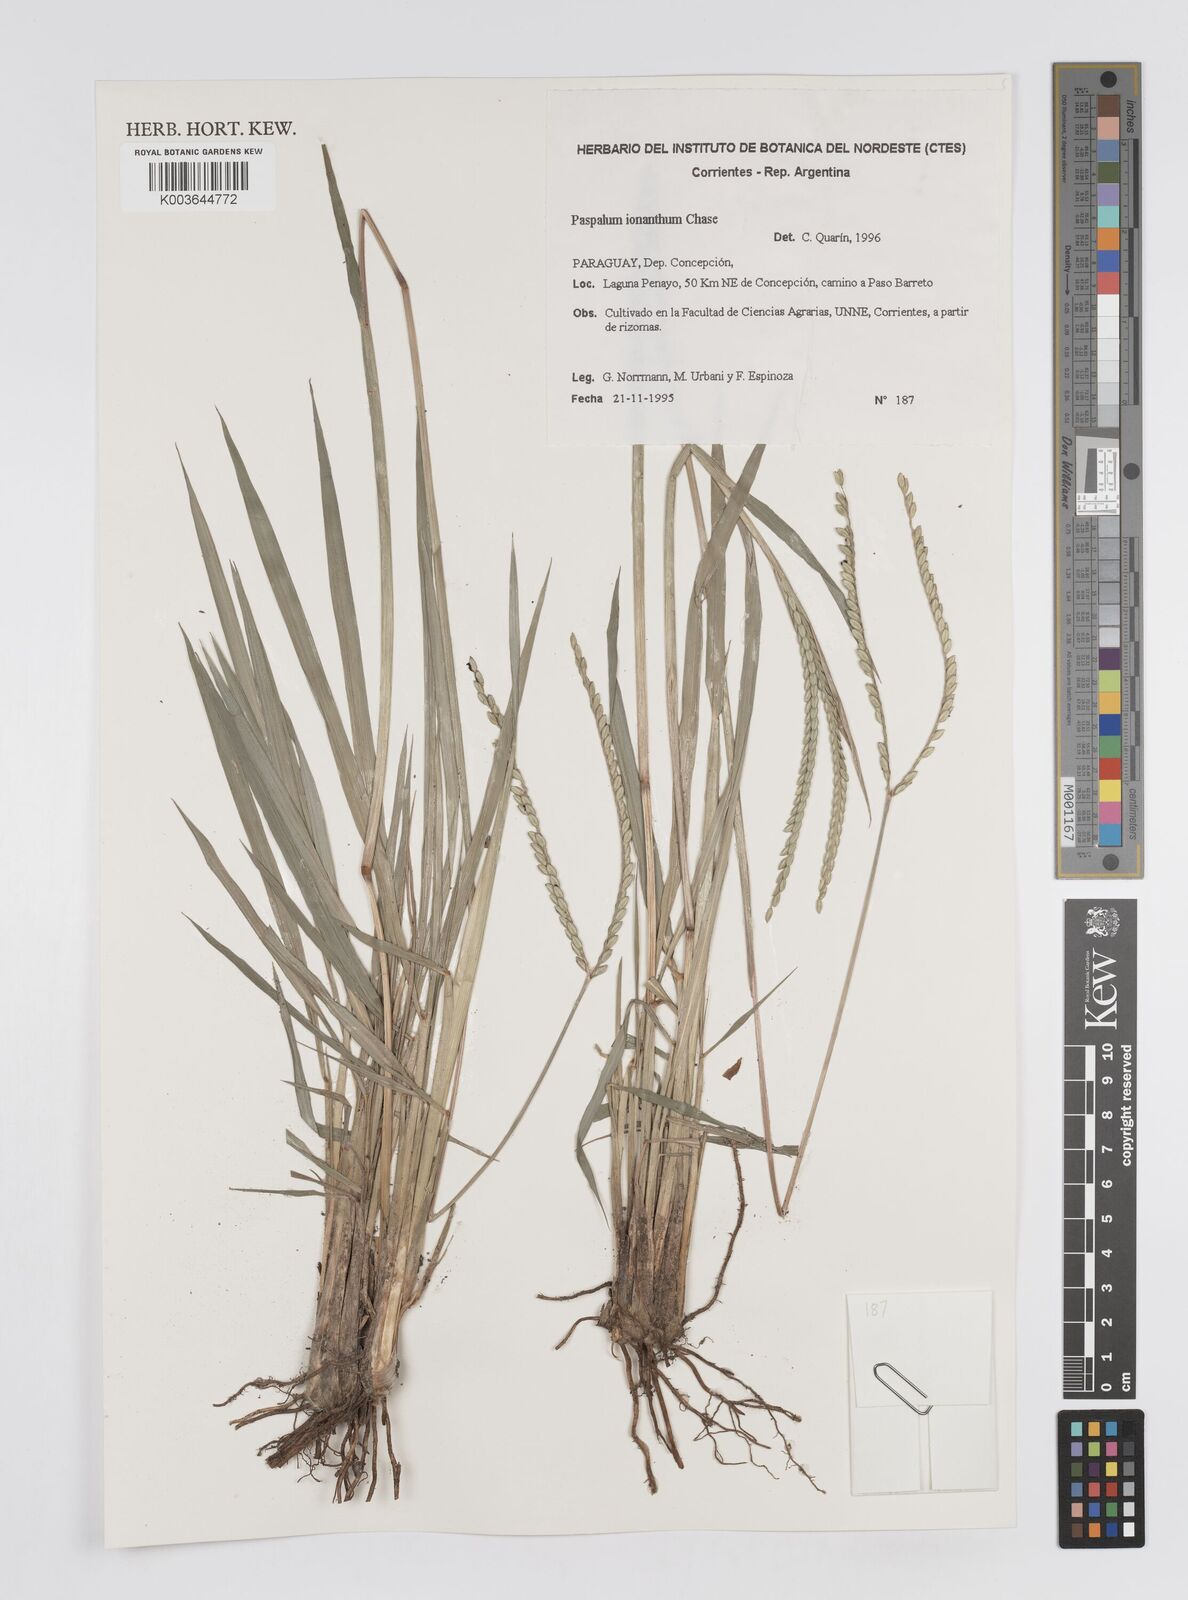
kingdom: Plantae
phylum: Tracheophyta
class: Liliopsida
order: Poales
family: Poaceae
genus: Paspalum
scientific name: Paspalum erianthum
